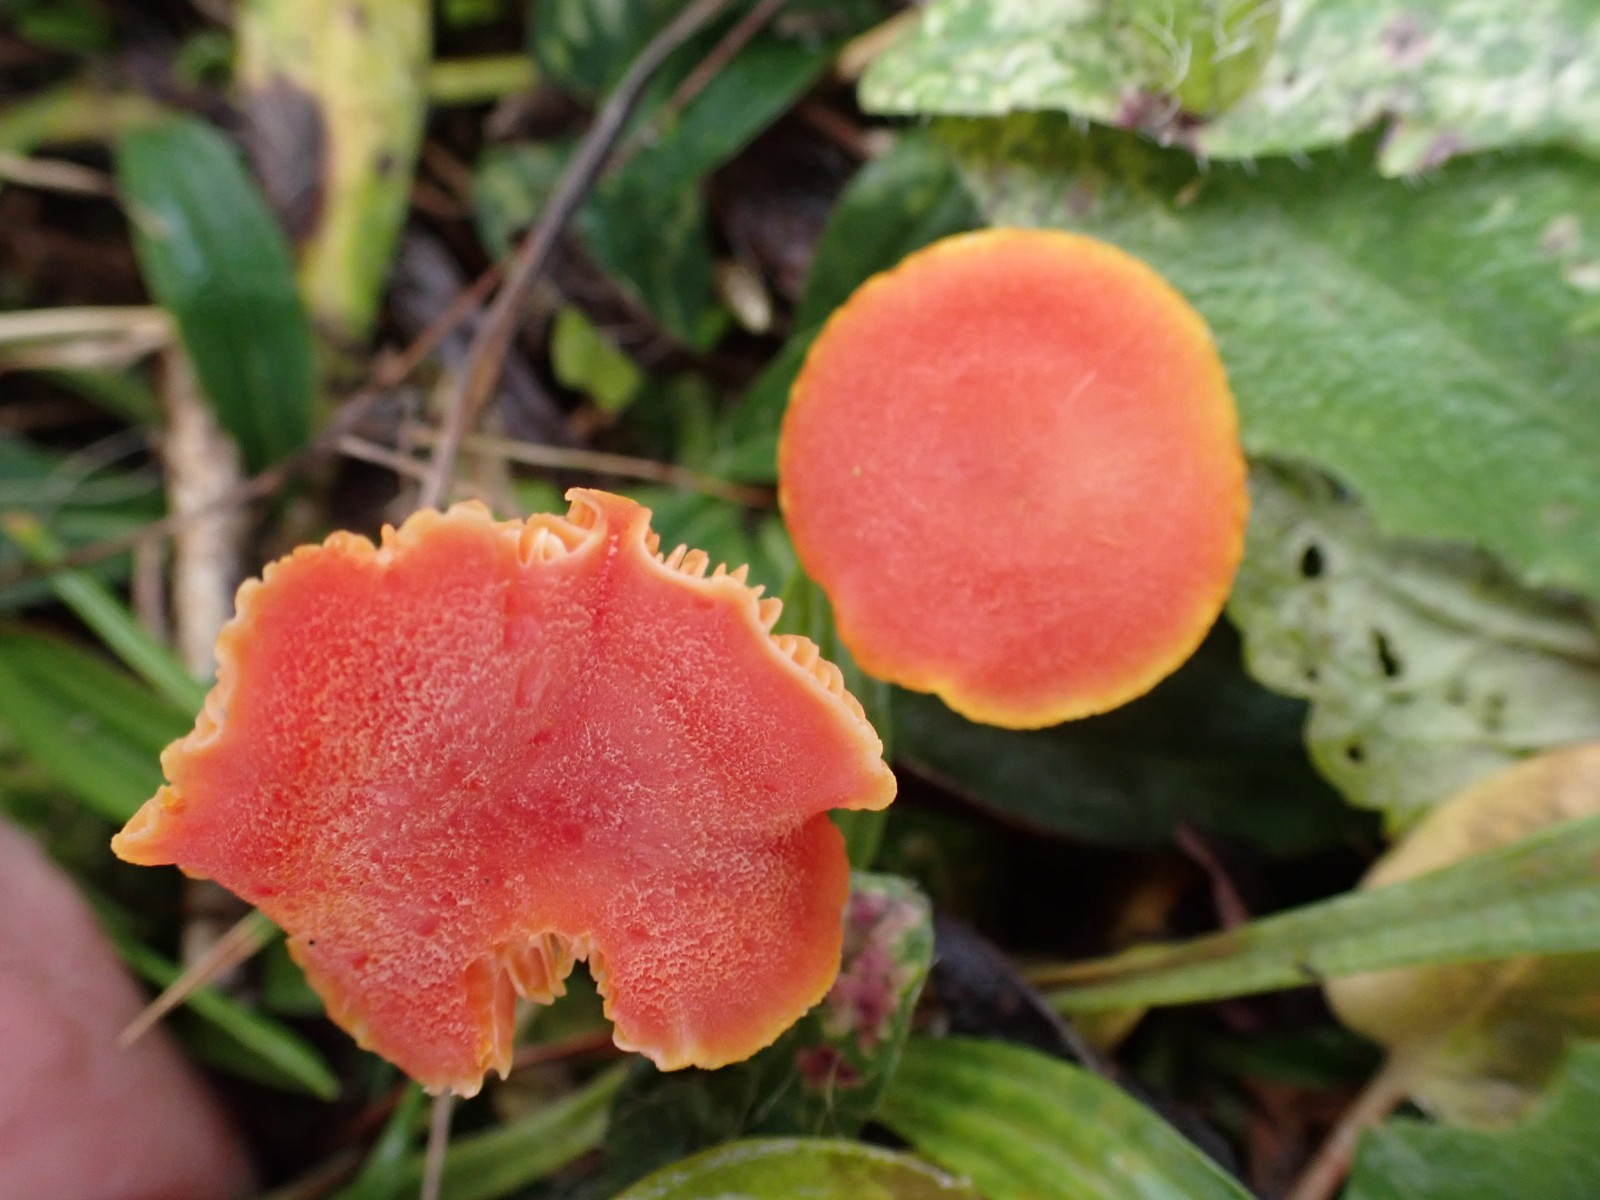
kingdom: Fungi
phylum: Basidiomycota
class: Agaricomycetes
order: Agaricales
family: Hygrophoraceae
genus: Hygrocybe
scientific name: Hygrocybe miniata
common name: mønje-vokshat
